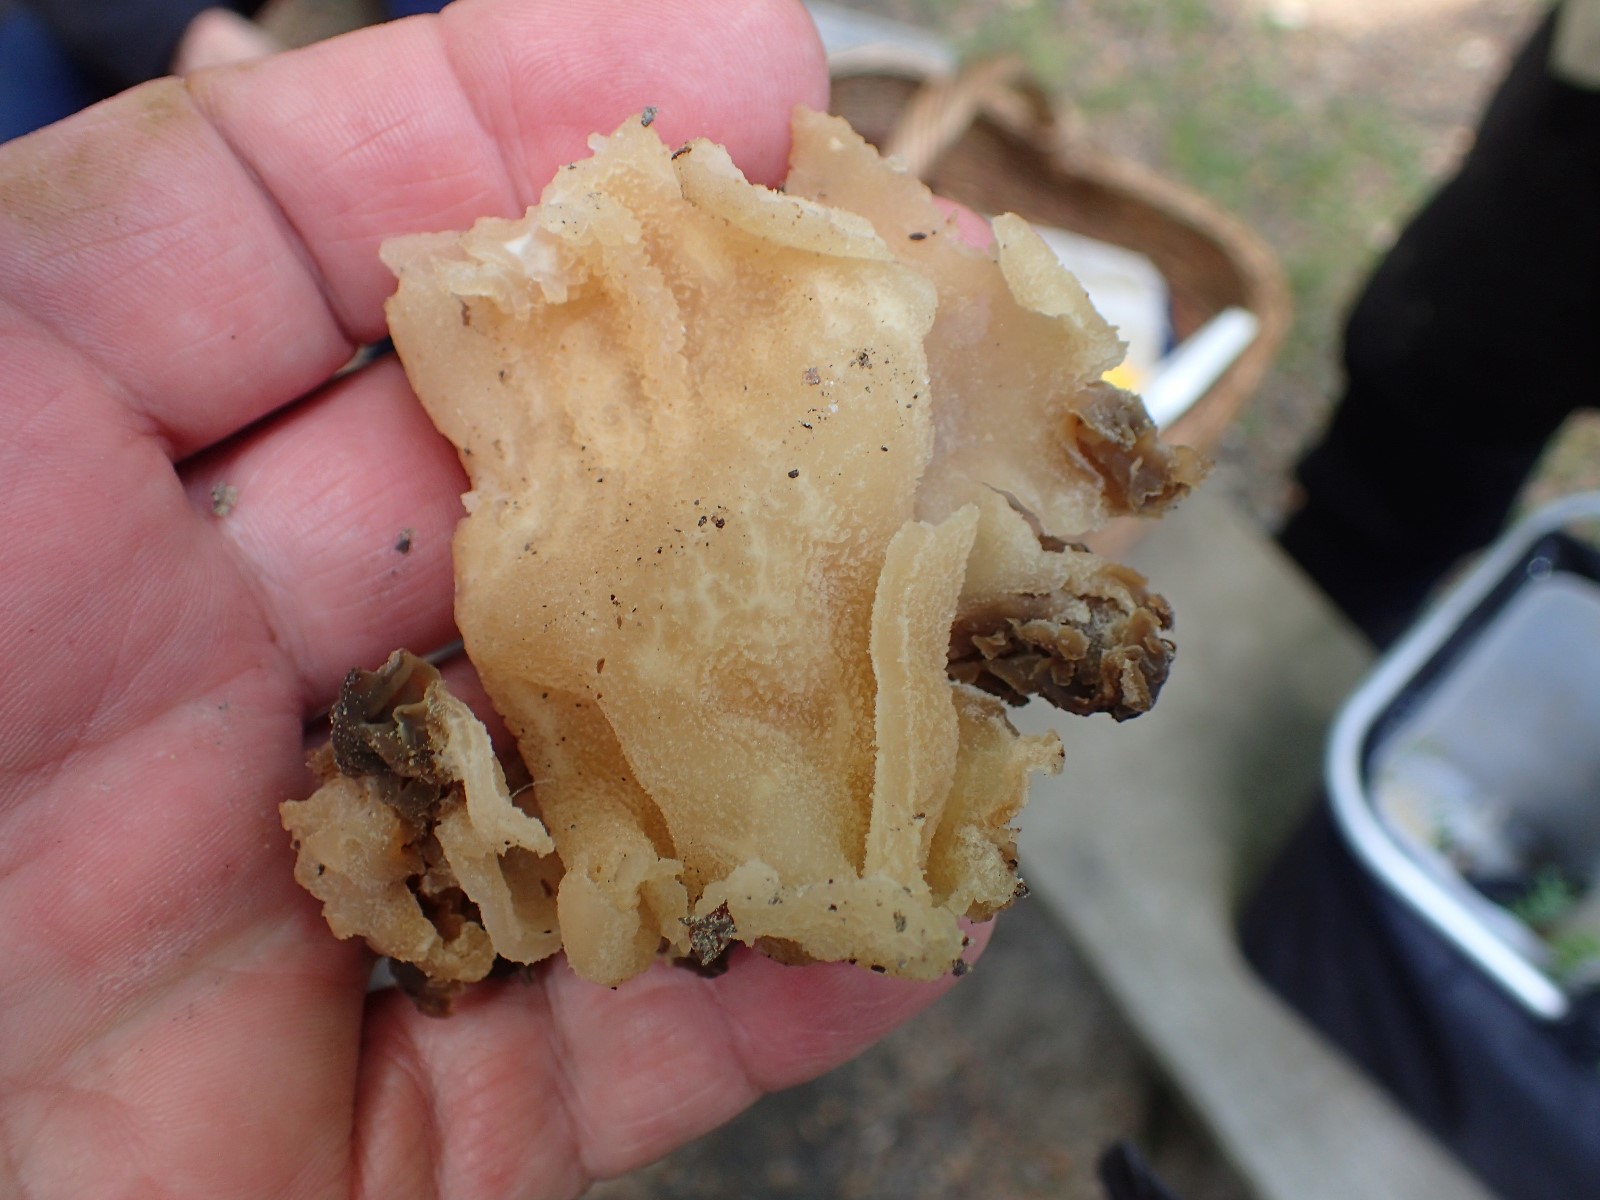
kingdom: Fungi
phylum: Ascomycota
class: Pezizomycetes
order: Pezizales
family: Morchellaceae
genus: Morchella
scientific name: Morchella semilibera
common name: hætte-morkel
